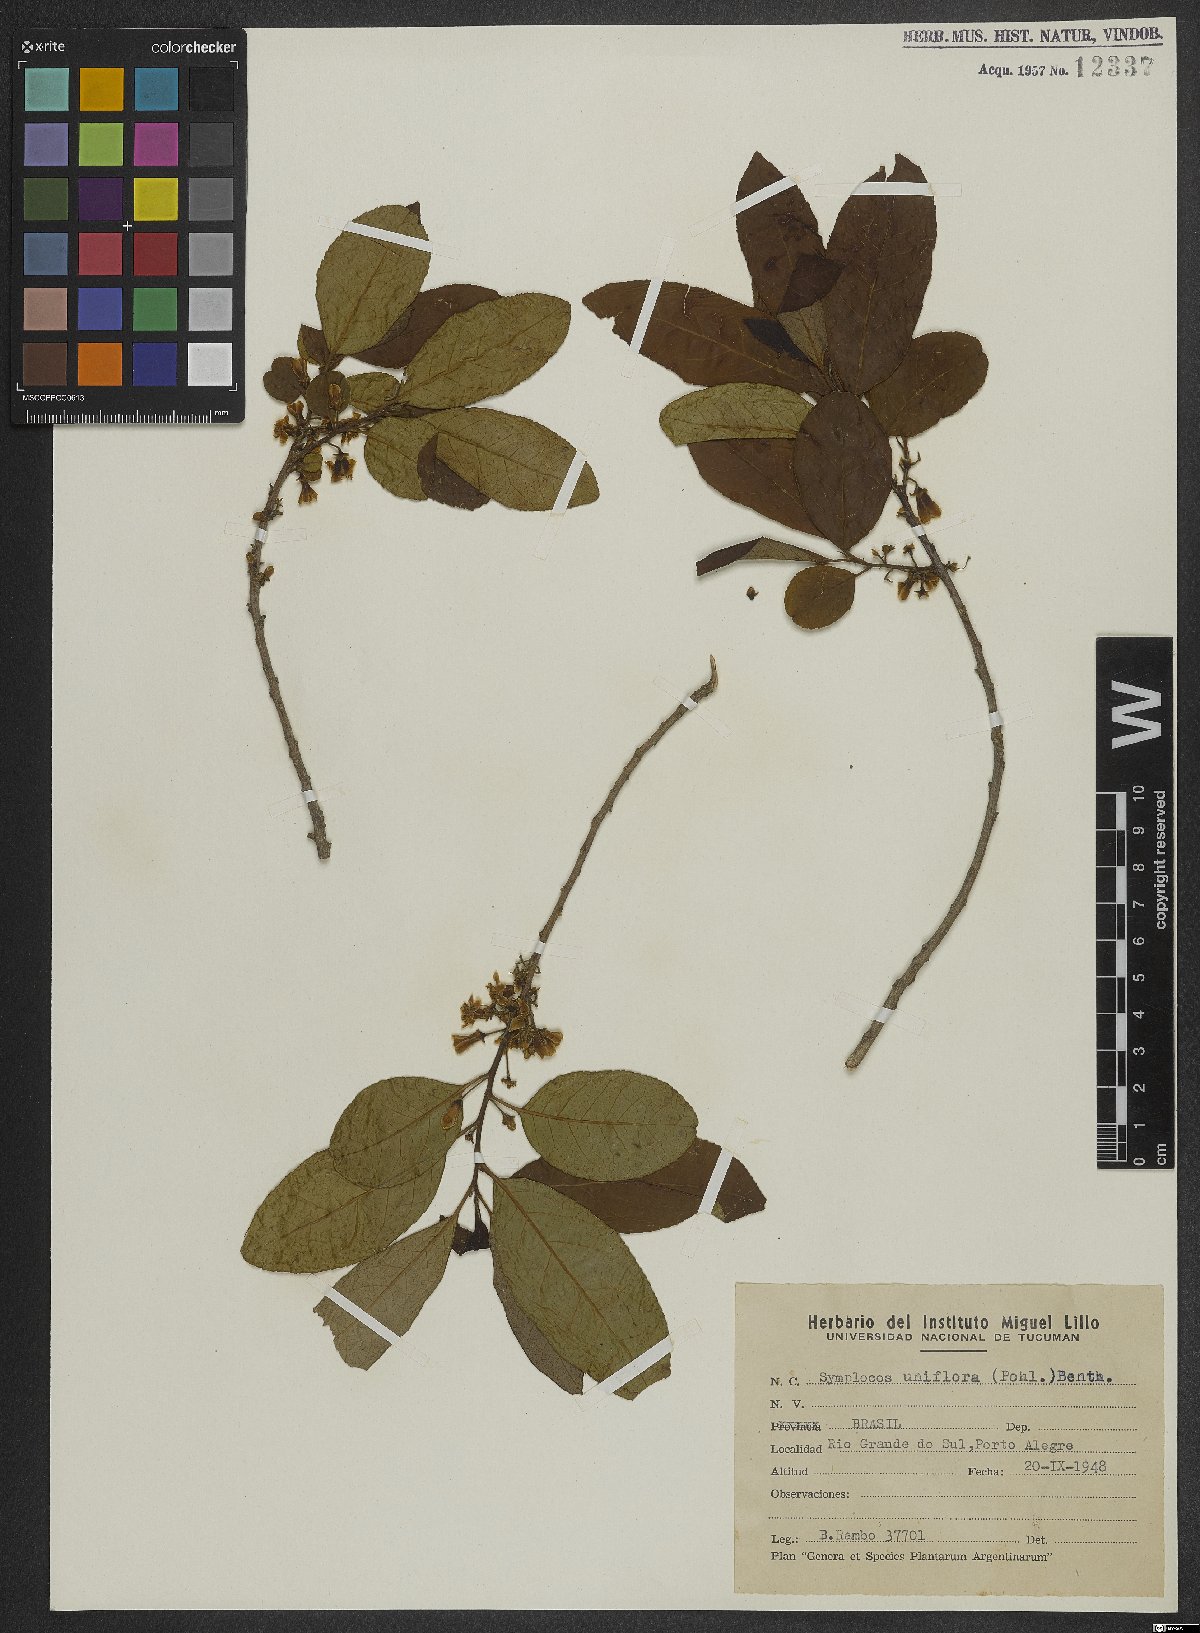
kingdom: Plantae
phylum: Tracheophyta
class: Magnoliopsida
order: Ericales
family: Symplocaceae
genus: Symplocos
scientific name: Symplocos uniflora
